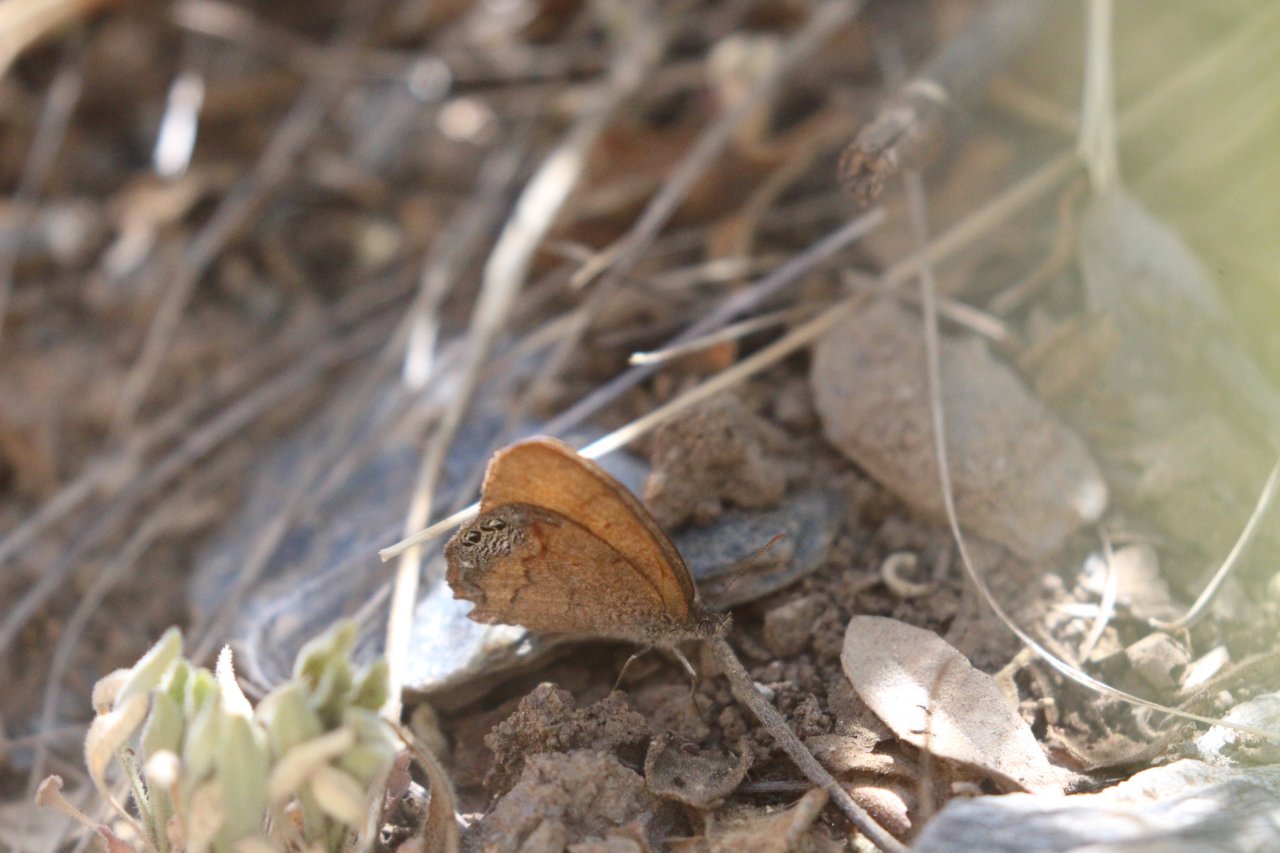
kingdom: Animalia
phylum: Arthropoda
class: Insecta
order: Lepidoptera
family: Nymphalidae
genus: Euptychia
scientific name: Euptychia Cyllopsis pertepida
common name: Canyonland Satyr
